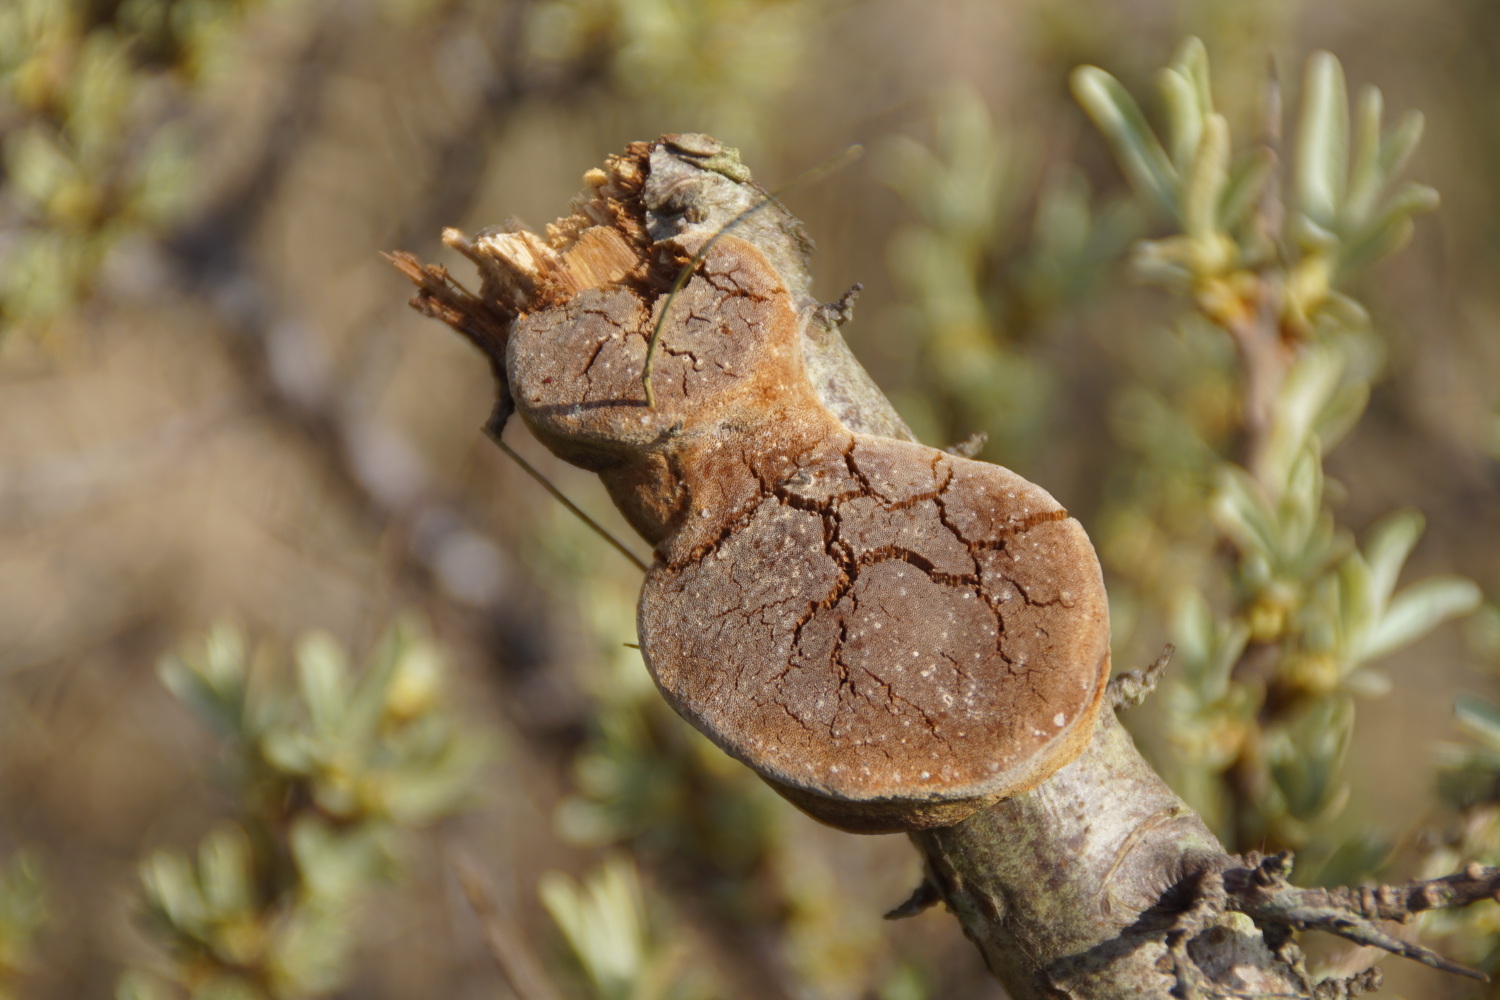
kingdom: Fungi
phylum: Basidiomycota
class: Agaricomycetes
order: Hymenochaetales
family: Hymenochaetaceae
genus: Fomitiporia
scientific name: Fomitiporia hippophaeicola
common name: havtorn-ildporesvamp
